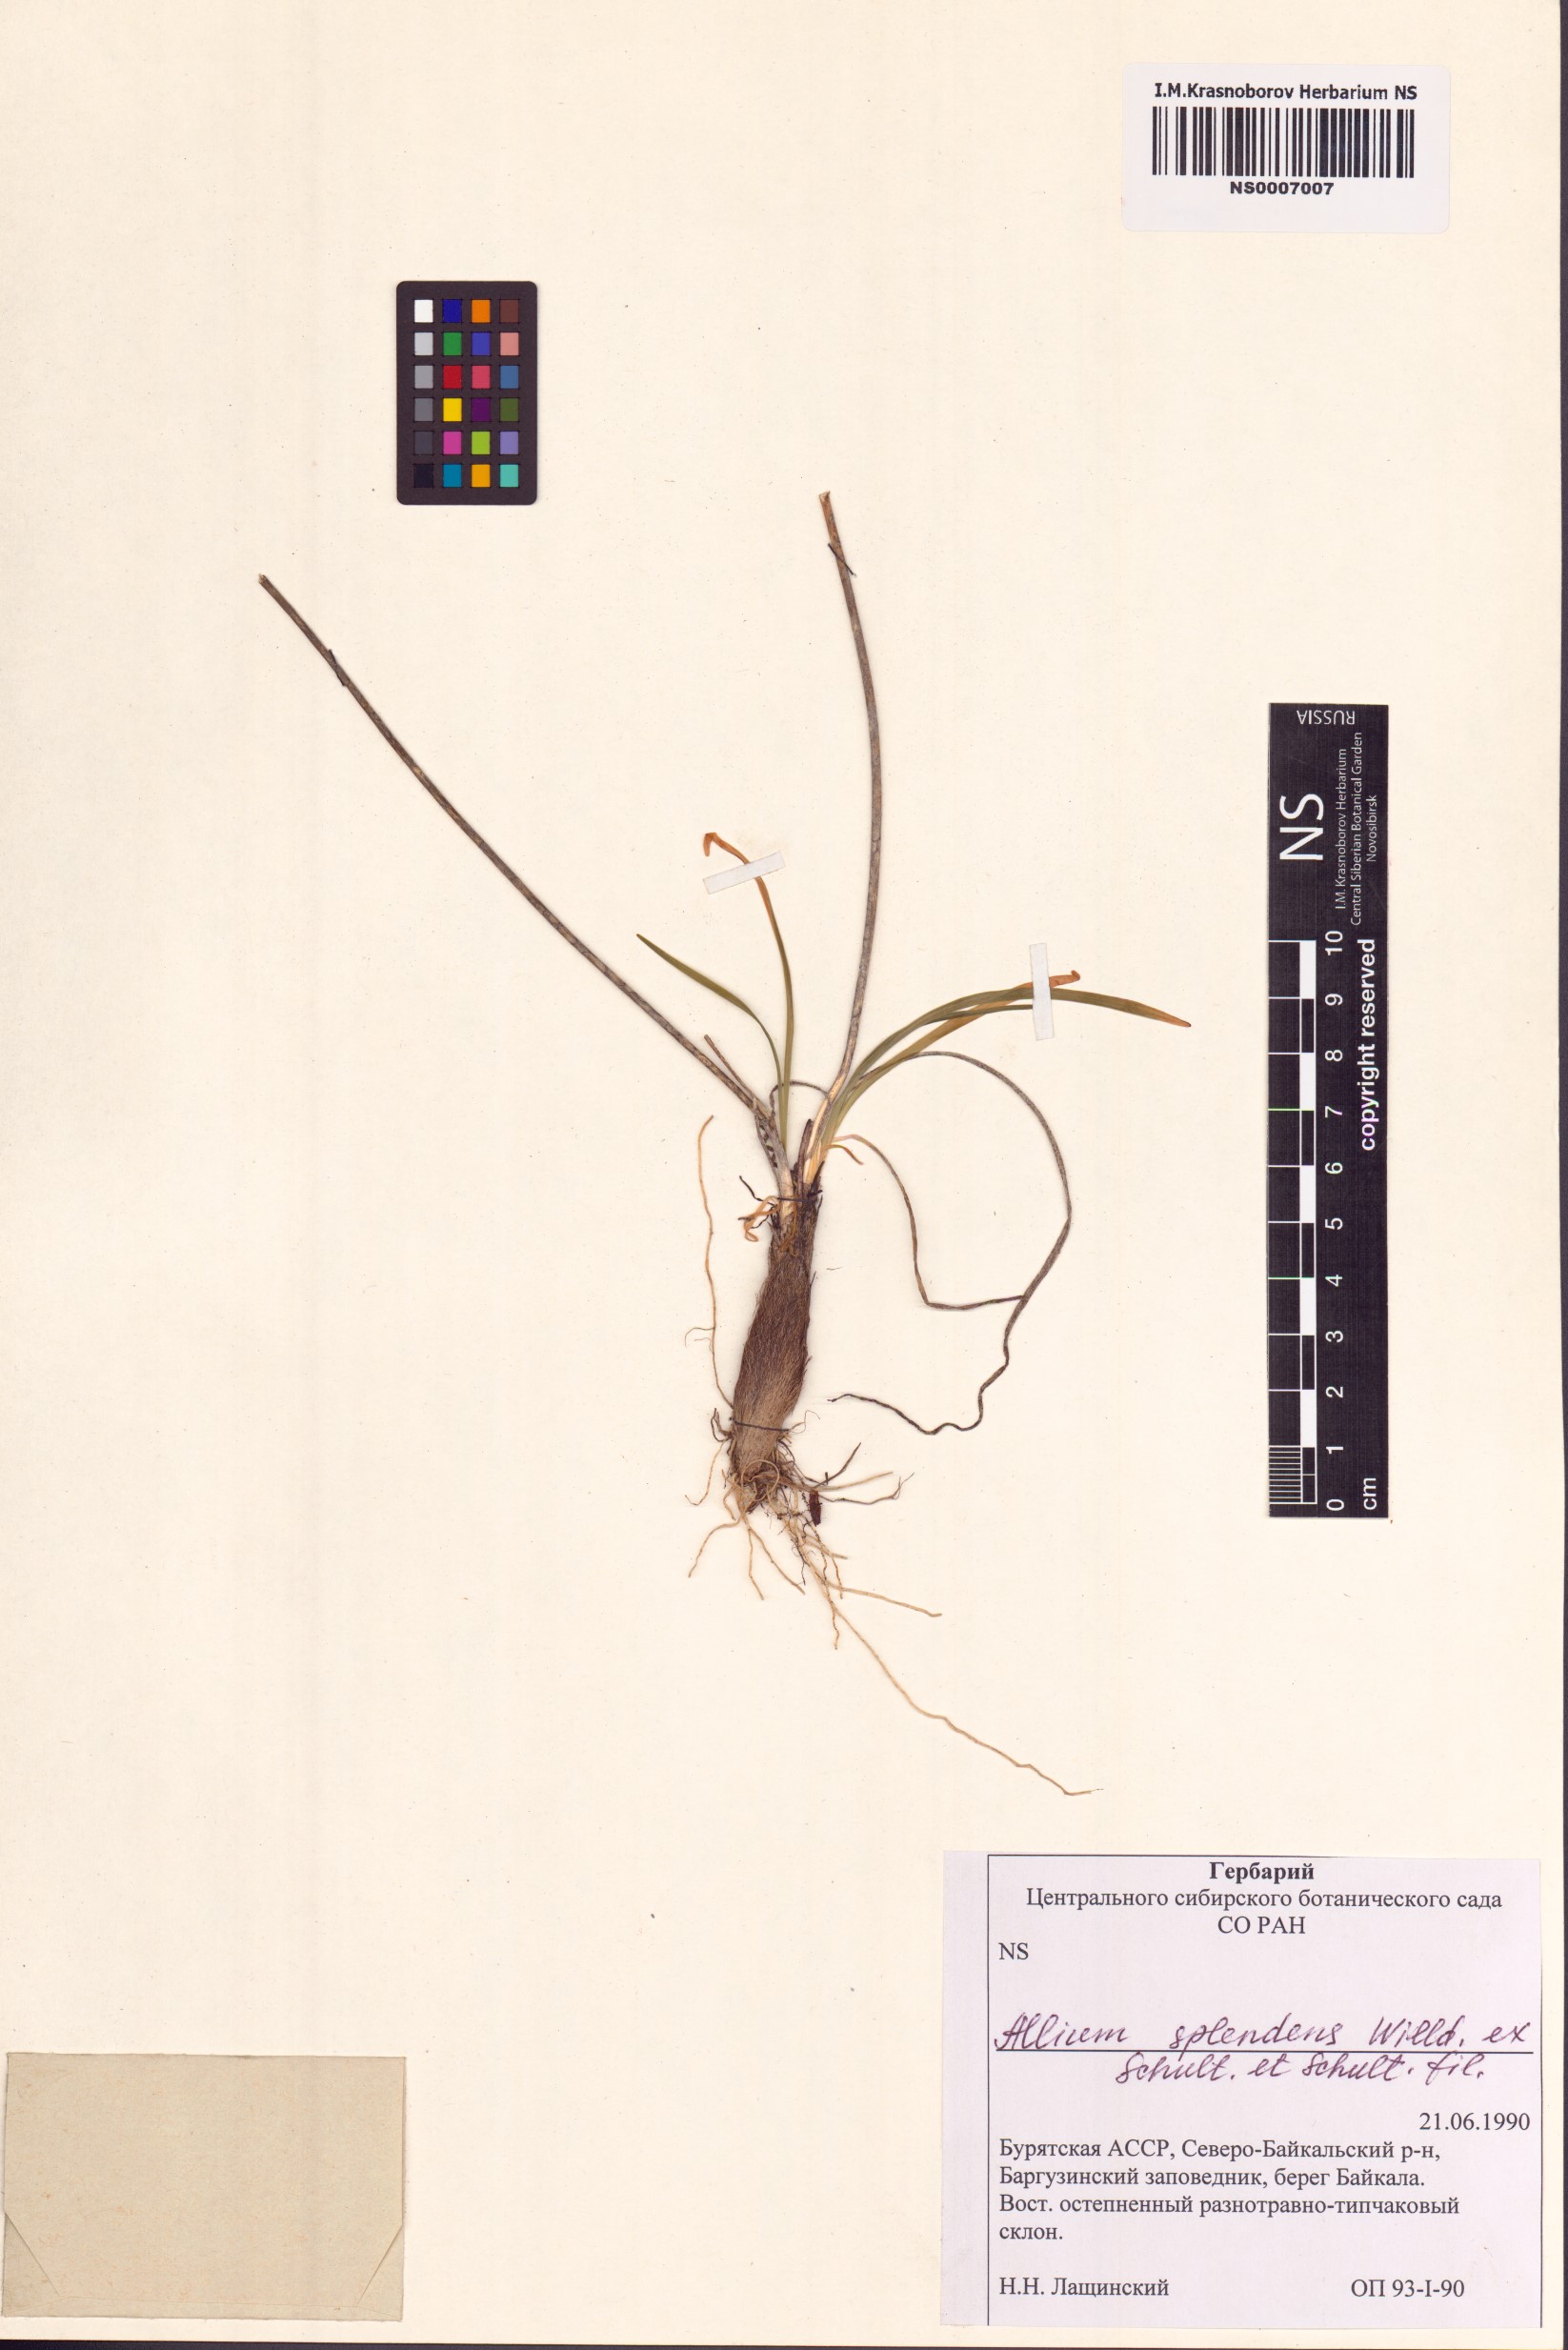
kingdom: Plantae
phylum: Tracheophyta
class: Liliopsida
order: Asparagales
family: Amaryllidaceae
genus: Allium
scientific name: Allium splendens
